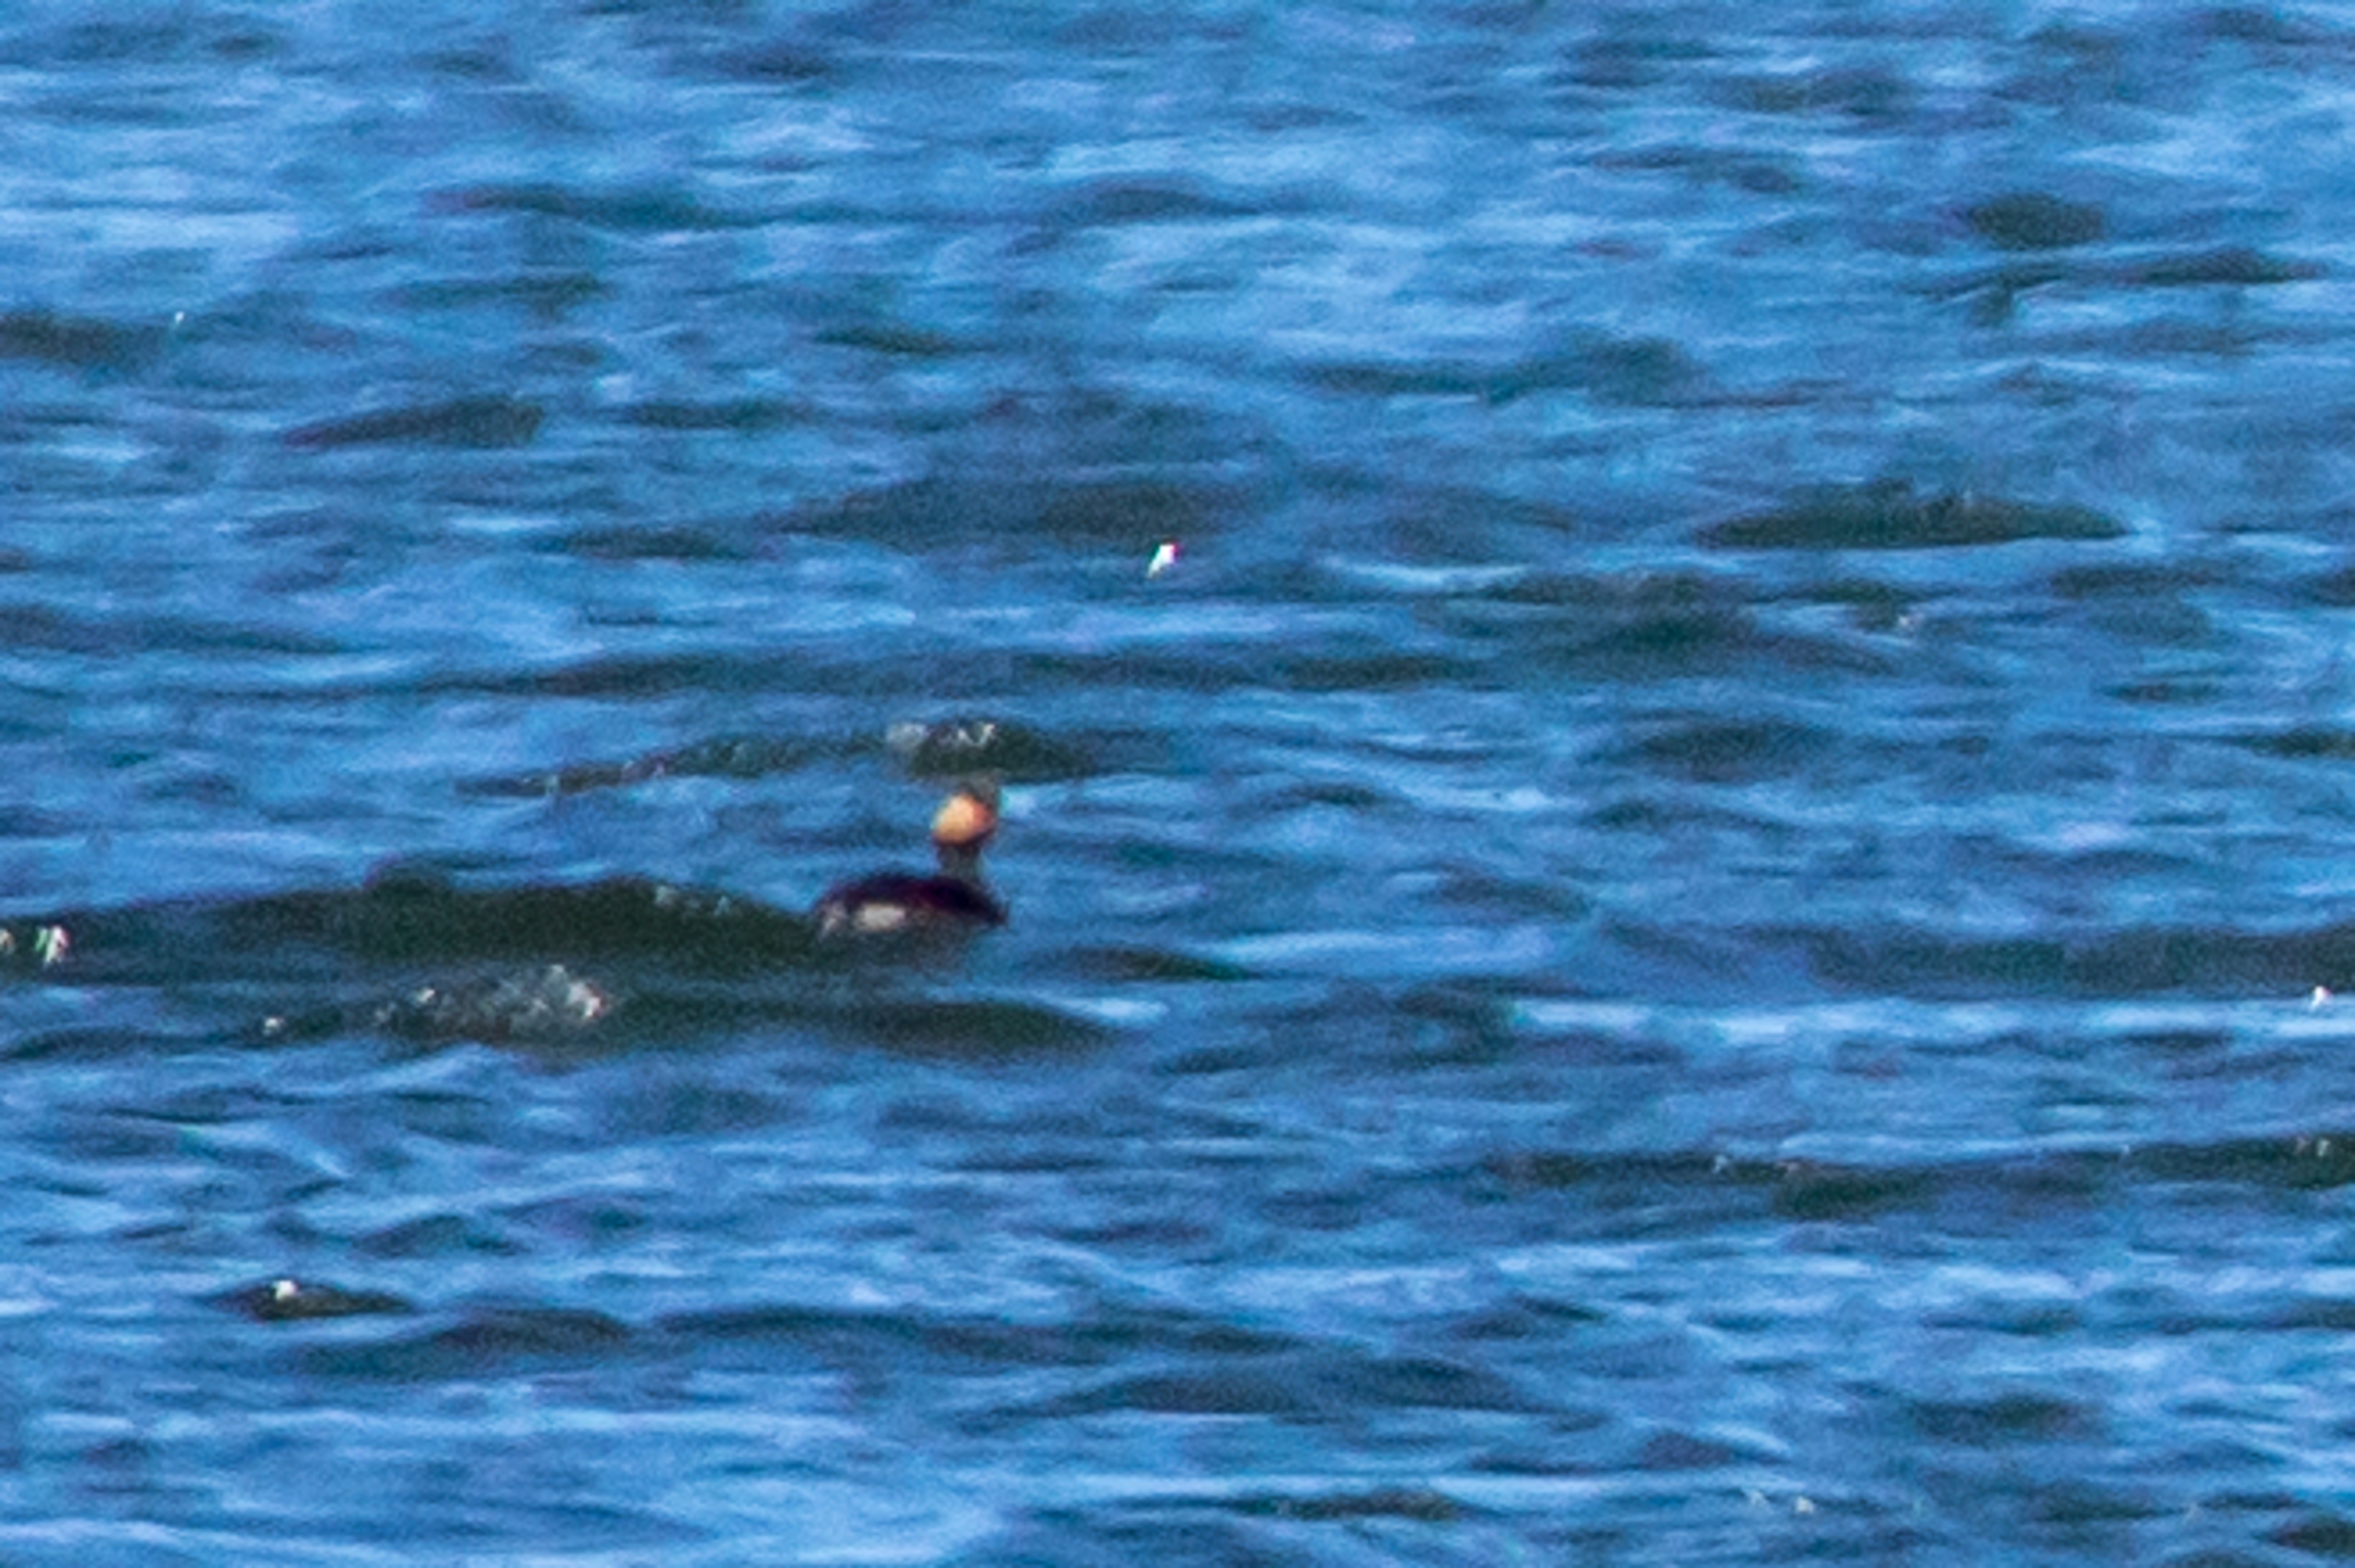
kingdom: Animalia
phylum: Chordata
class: Aves
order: Podicipediformes
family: Podicipedidae
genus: Podiceps
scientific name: Podiceps nigricollis
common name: Sorthalset lappedykker
